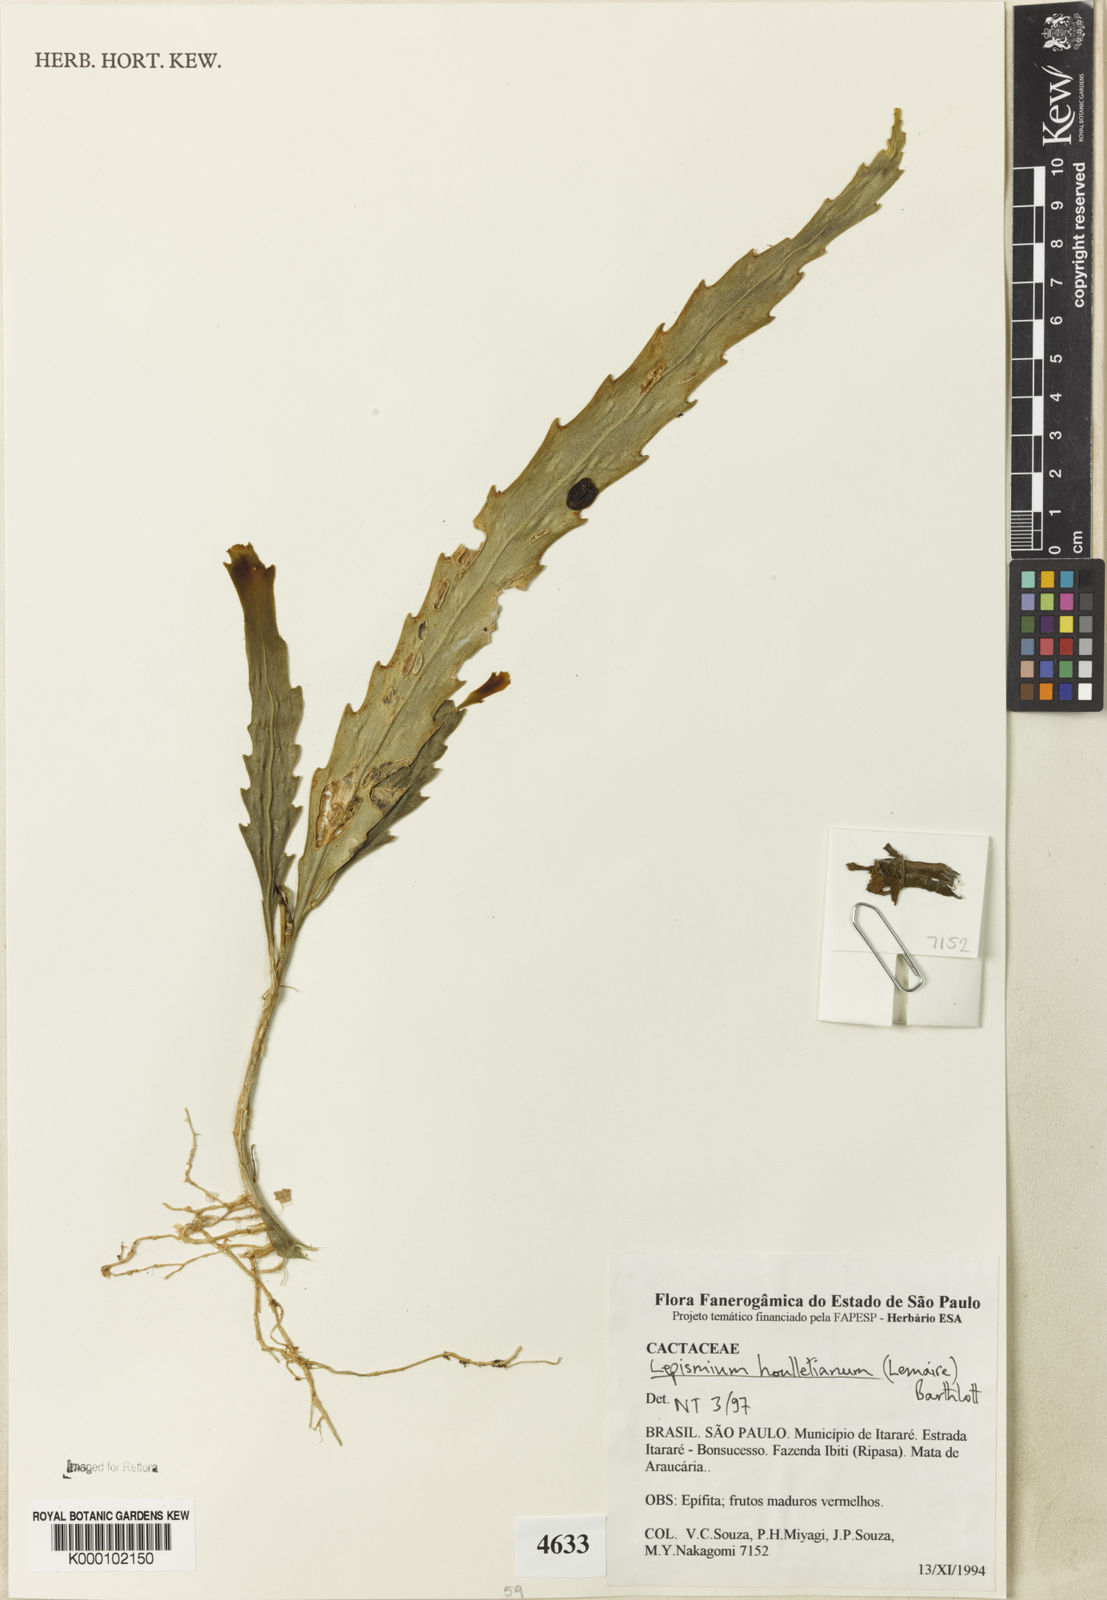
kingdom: Plantae
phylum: Tracheophyta
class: Magnoliopsida
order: Caryophyllales
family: Cactaceae
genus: Lepismium
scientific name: Lepismium houlletianum
